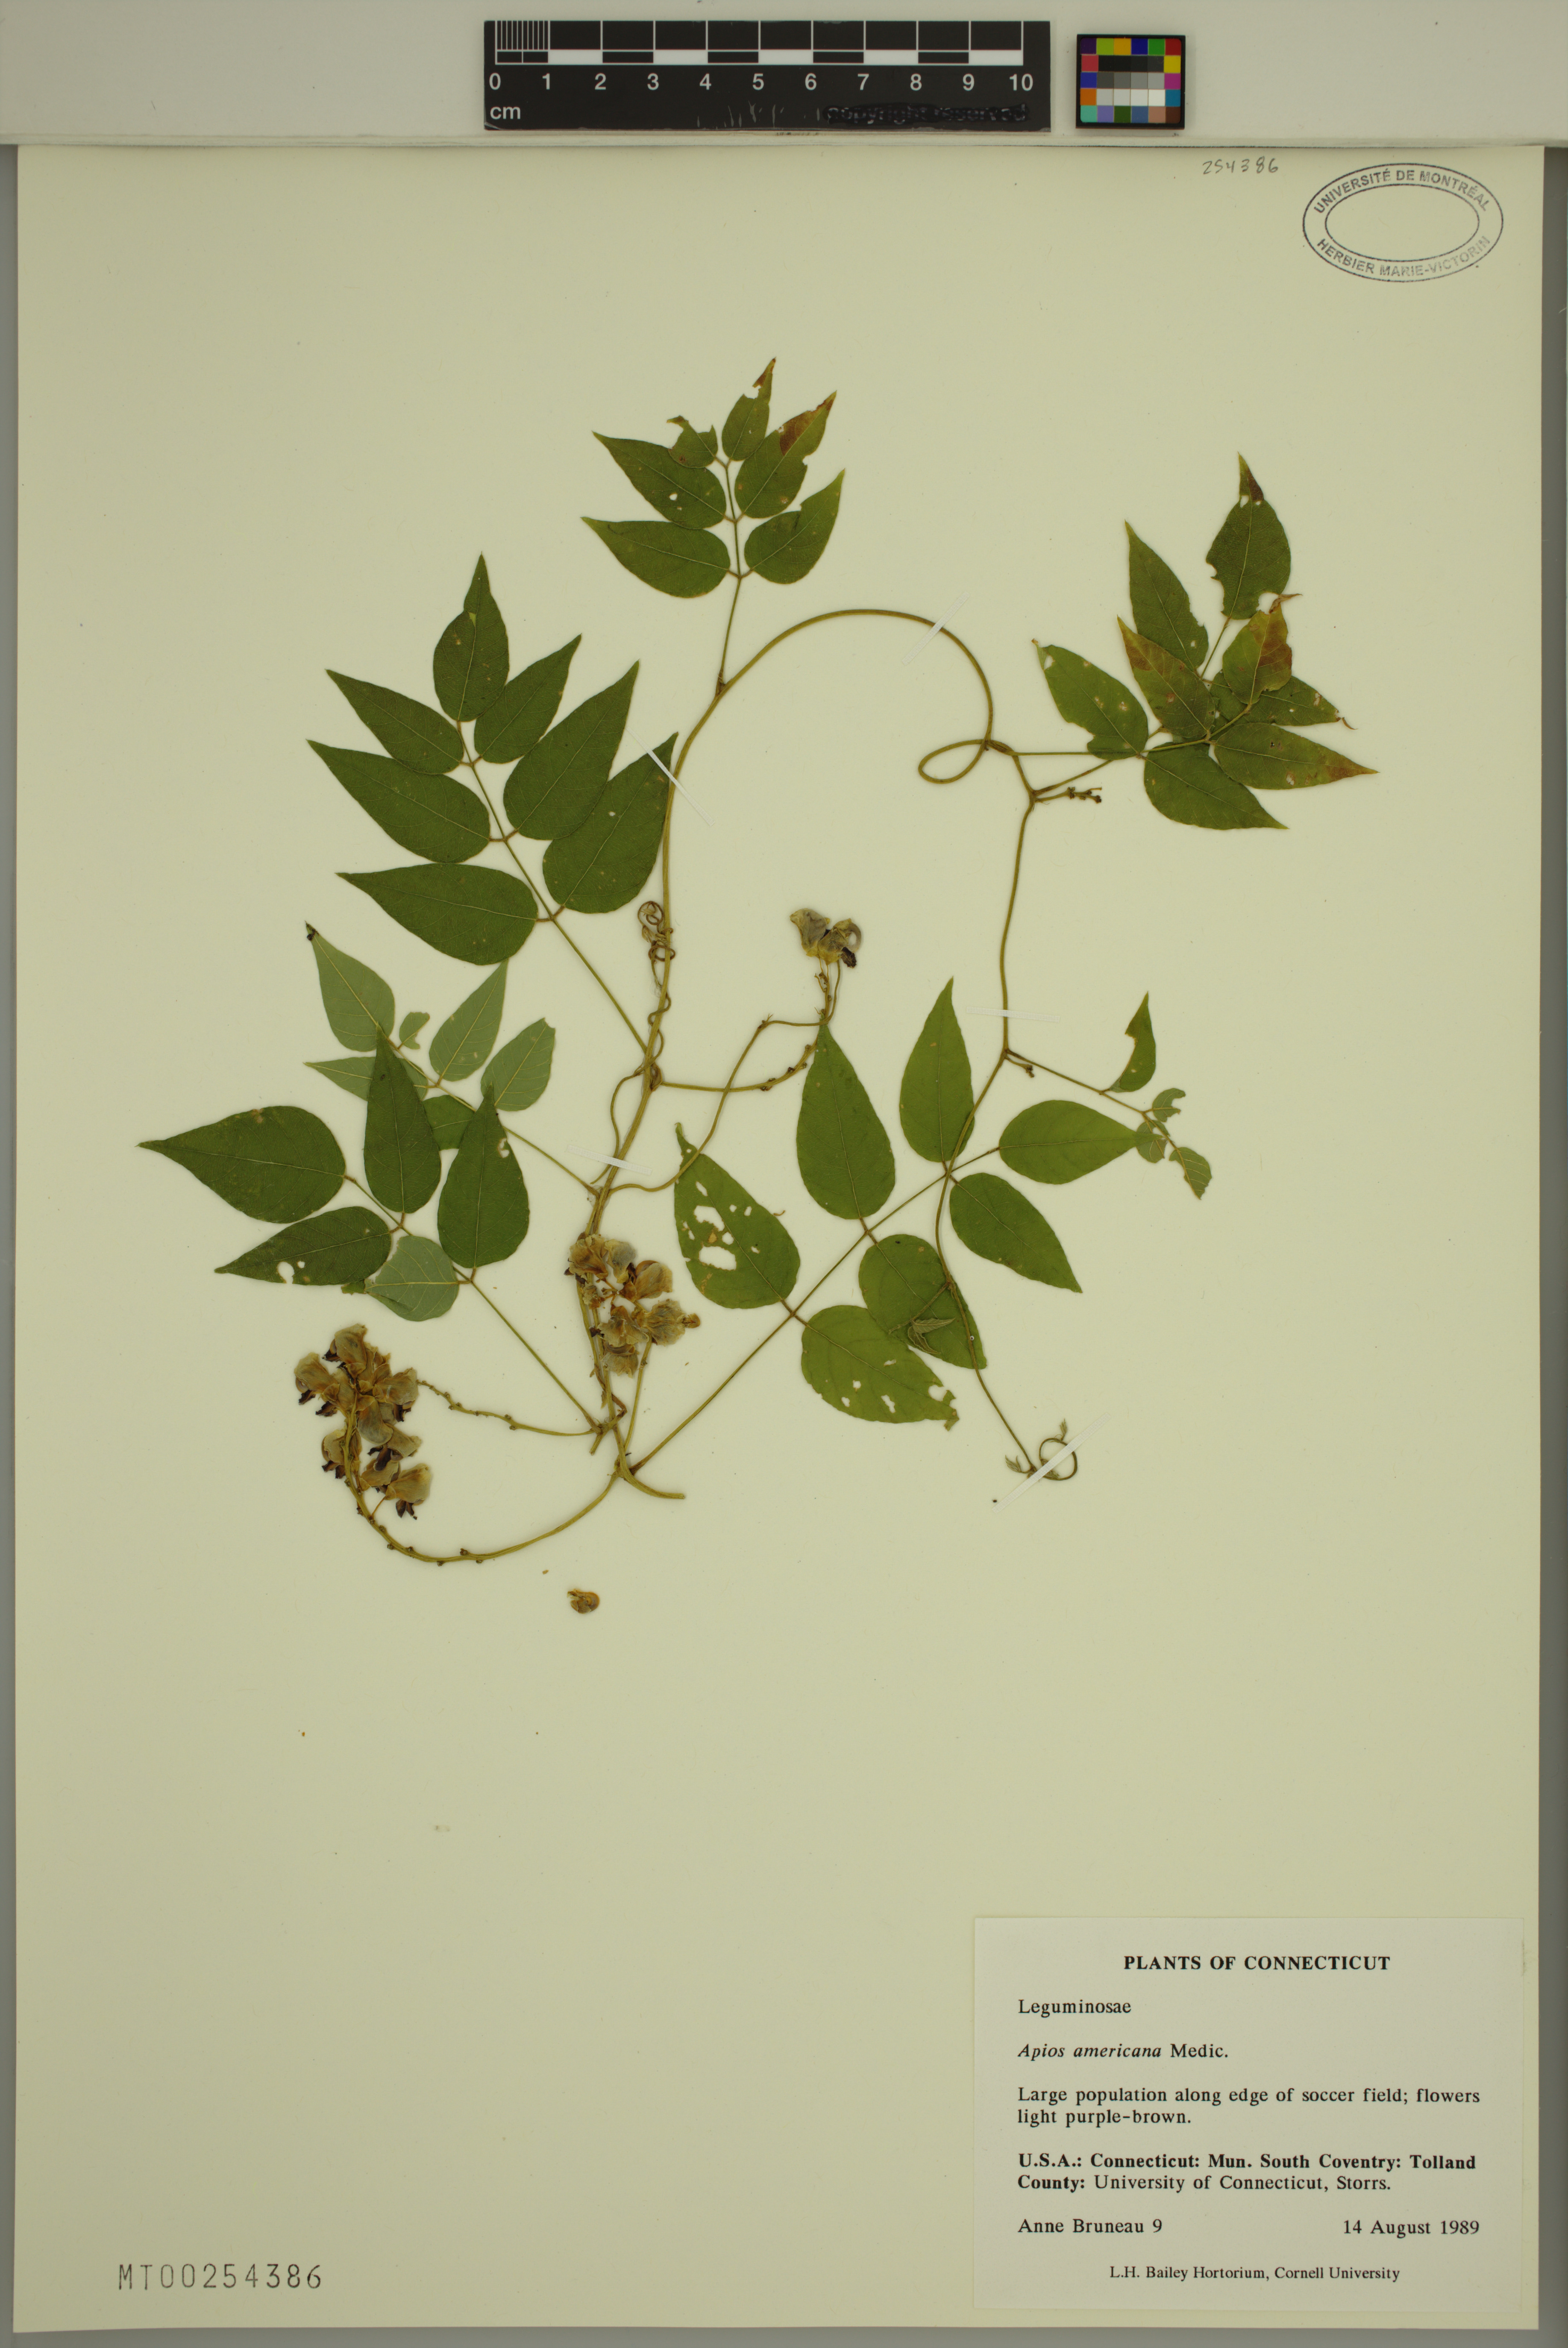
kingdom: Plantae
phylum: Tracheophyta
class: Magnoliopsida
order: Fabales
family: Fabaceae
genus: Apios
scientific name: Apios americana
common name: American potato-bean
